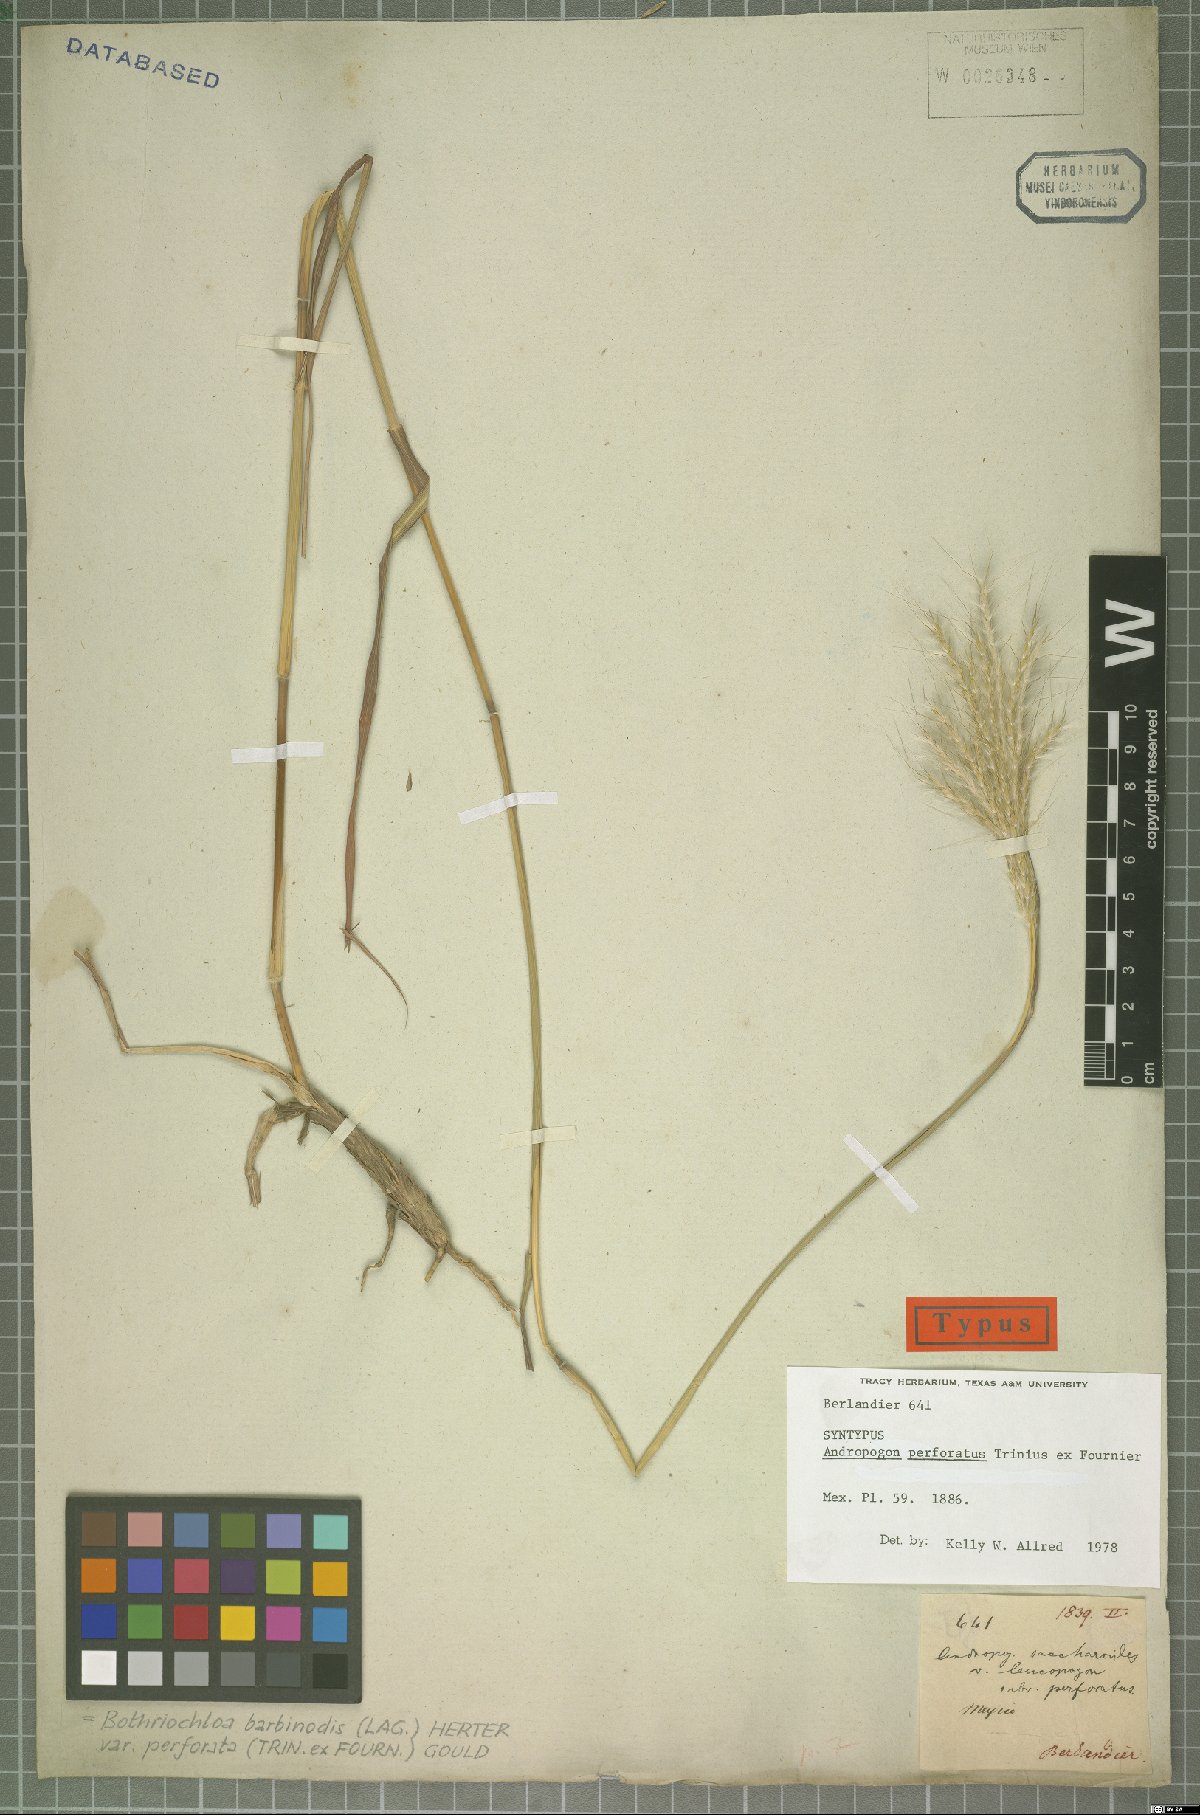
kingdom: Plantae
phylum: Tracheophyta
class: Liliopsida
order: Poales
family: Poaceae
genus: Bothriochloa
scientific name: Bothriochloa barbinodis
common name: Cane bluestem
